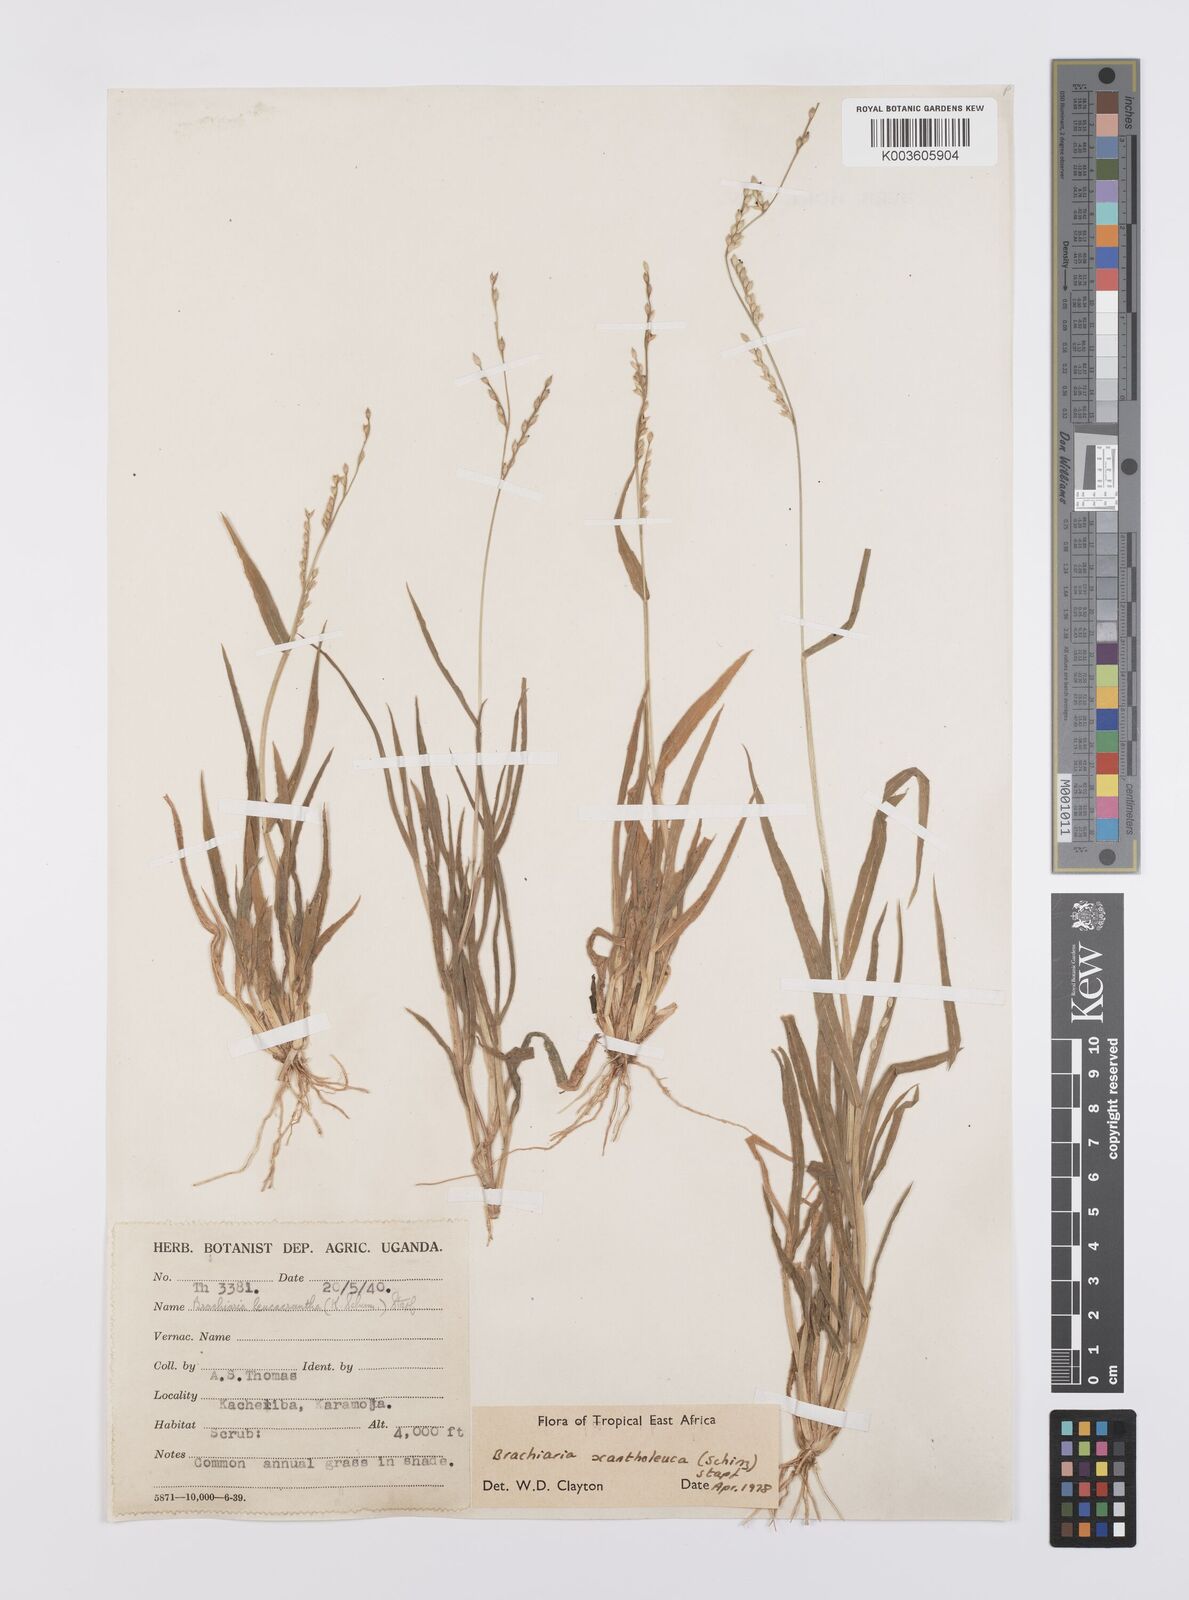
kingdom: Plantae
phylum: Tracheophyta
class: Liliopsida
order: Poales
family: Poaceae
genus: Urochloa
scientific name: Urochloa xantholeuca
